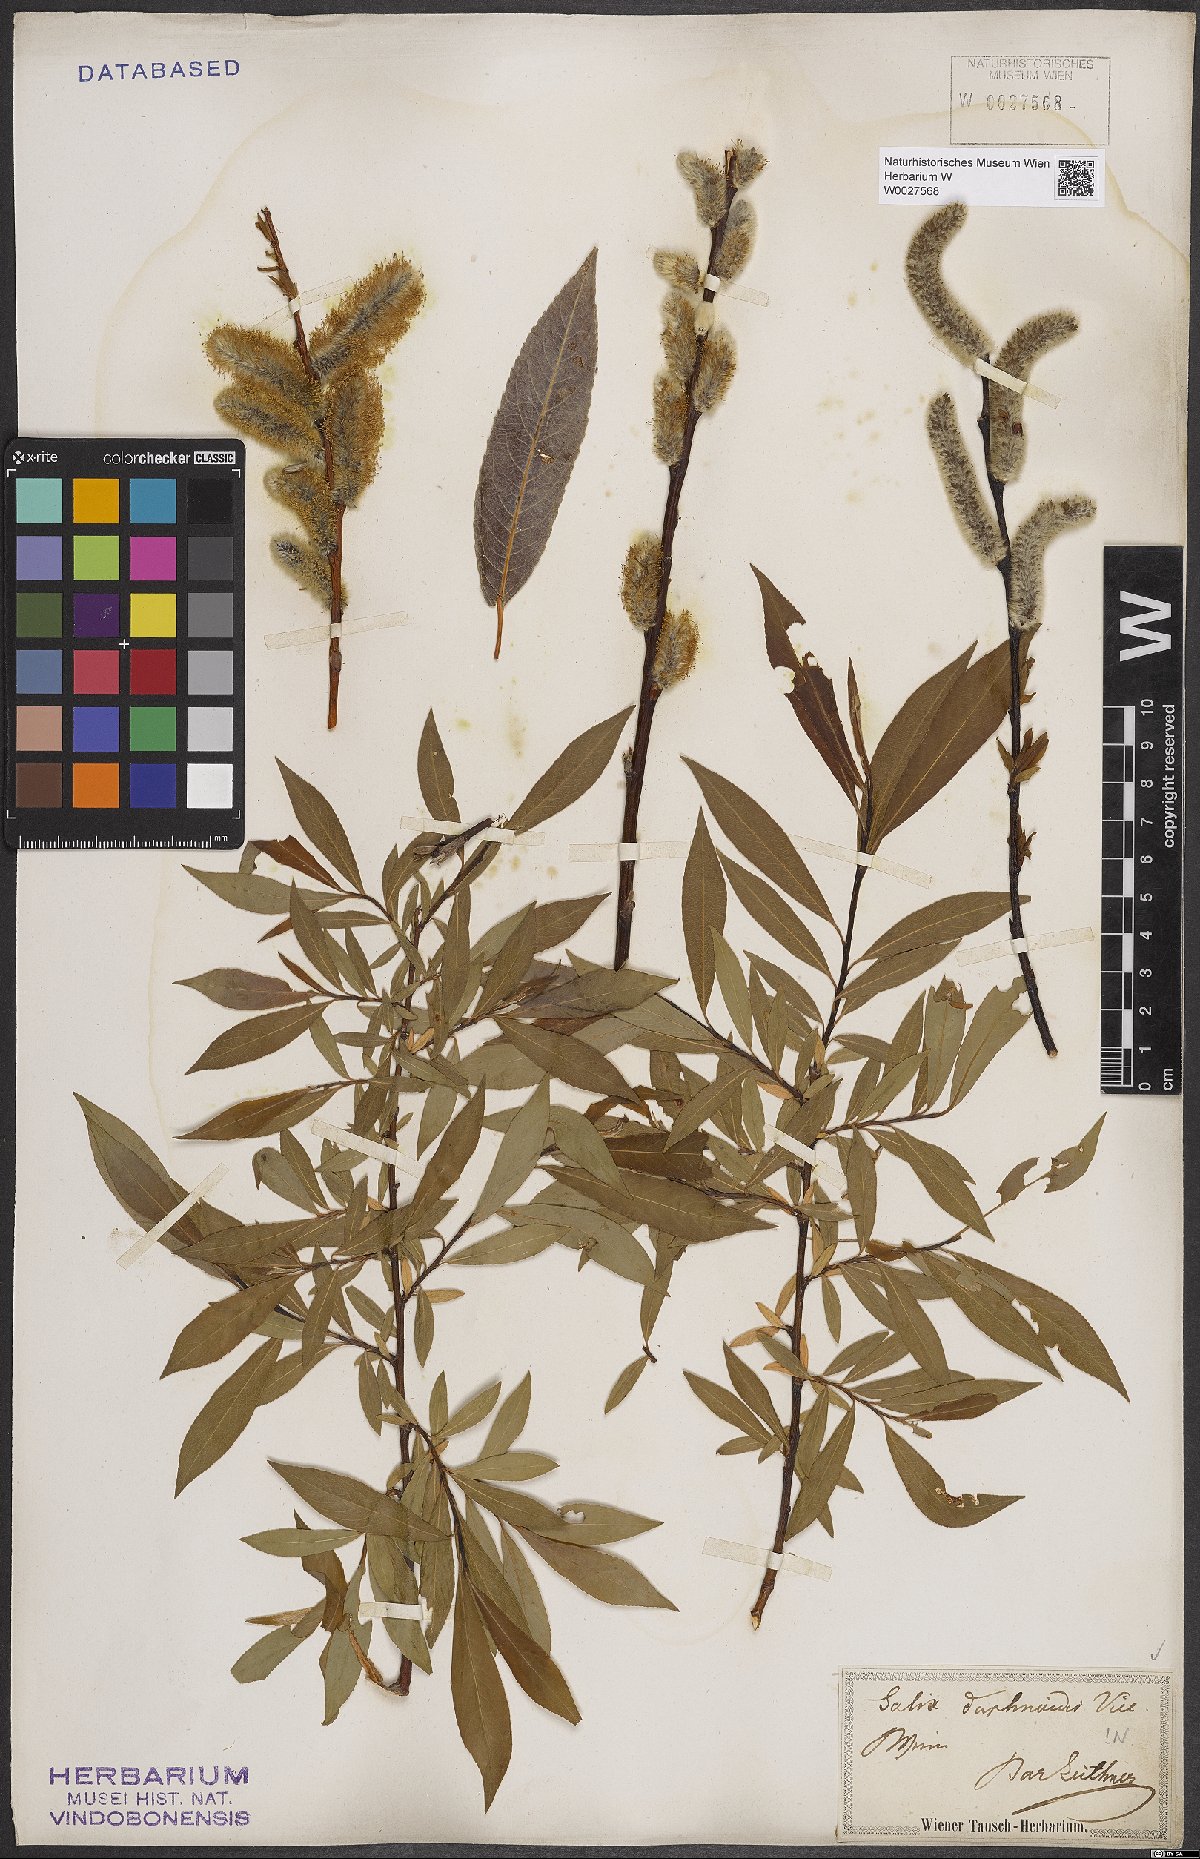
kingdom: Plantae
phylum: Tracheophyta
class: Magnoliopsida
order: Malpighiales
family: Salicaceae
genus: Salix
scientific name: Salix daphnoides
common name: European violet-willow
